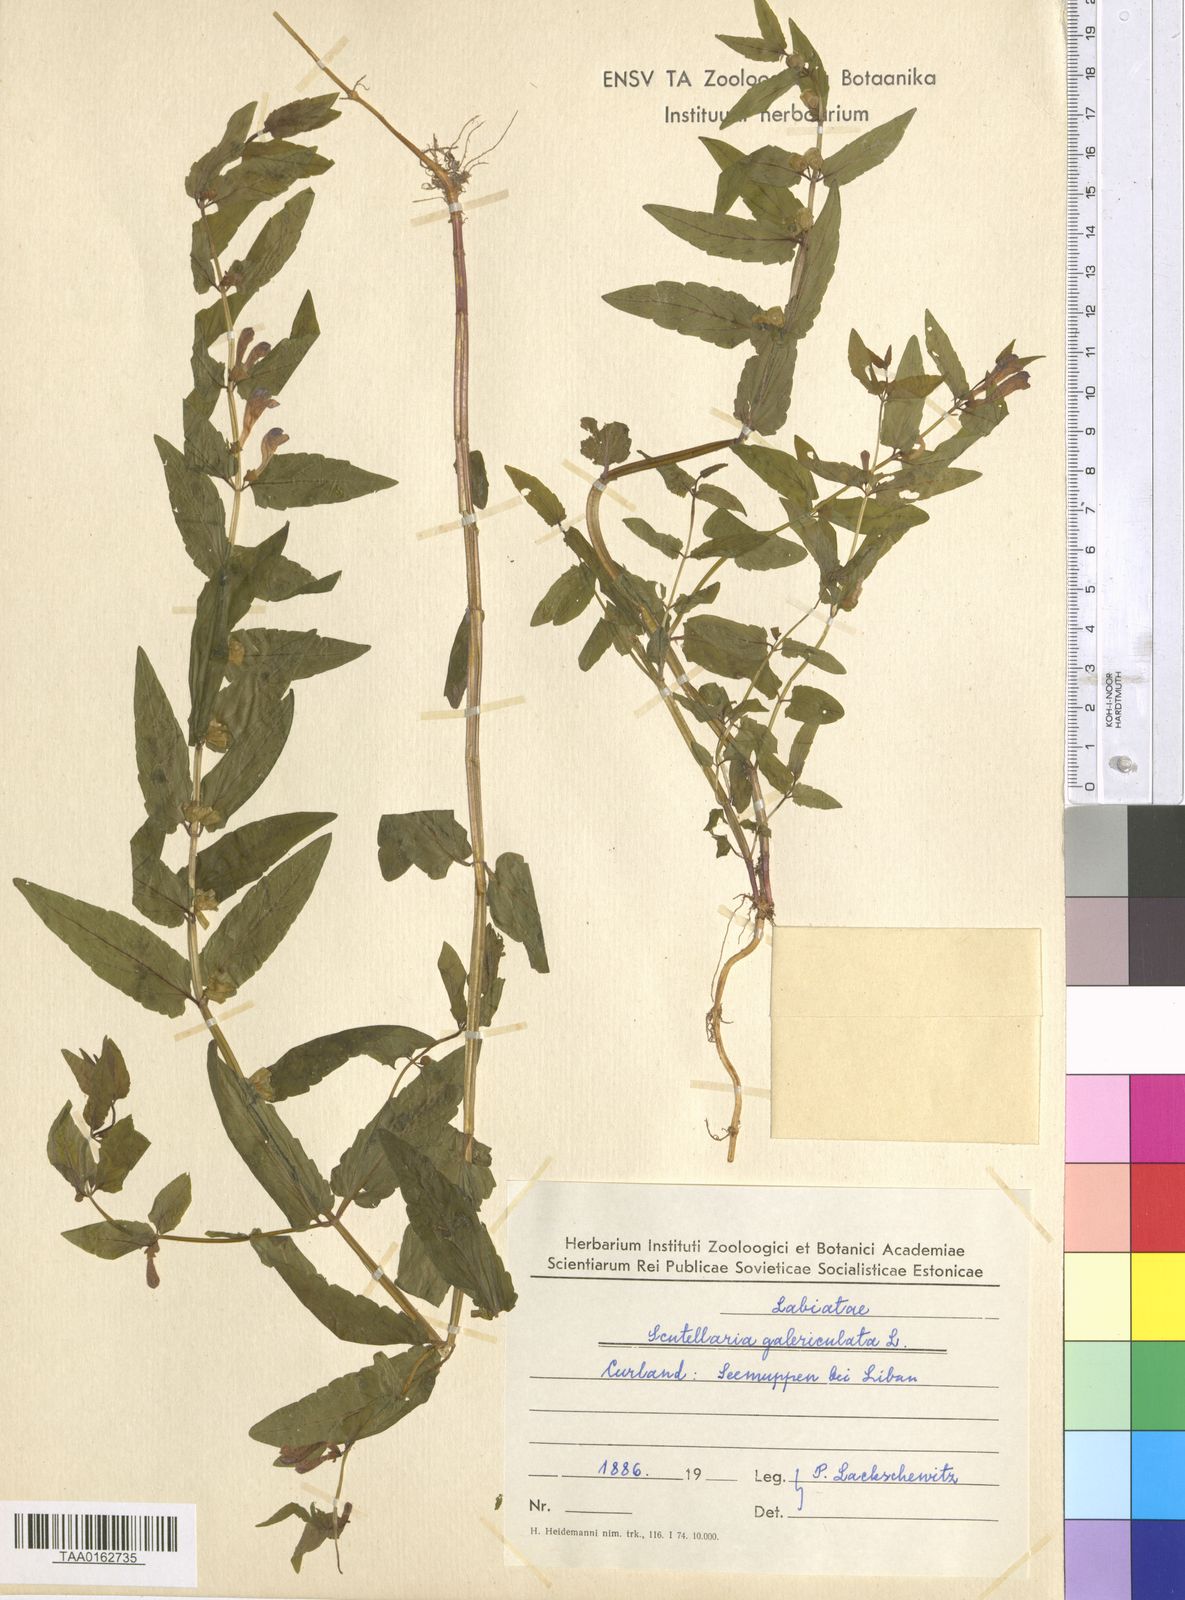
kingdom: Plantae
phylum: Tracheophyta
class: Magnoliopsida
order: Lamiales
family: Lamiaceae
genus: Scutellaria
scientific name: Scutellaria galericulata
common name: Skullcap
